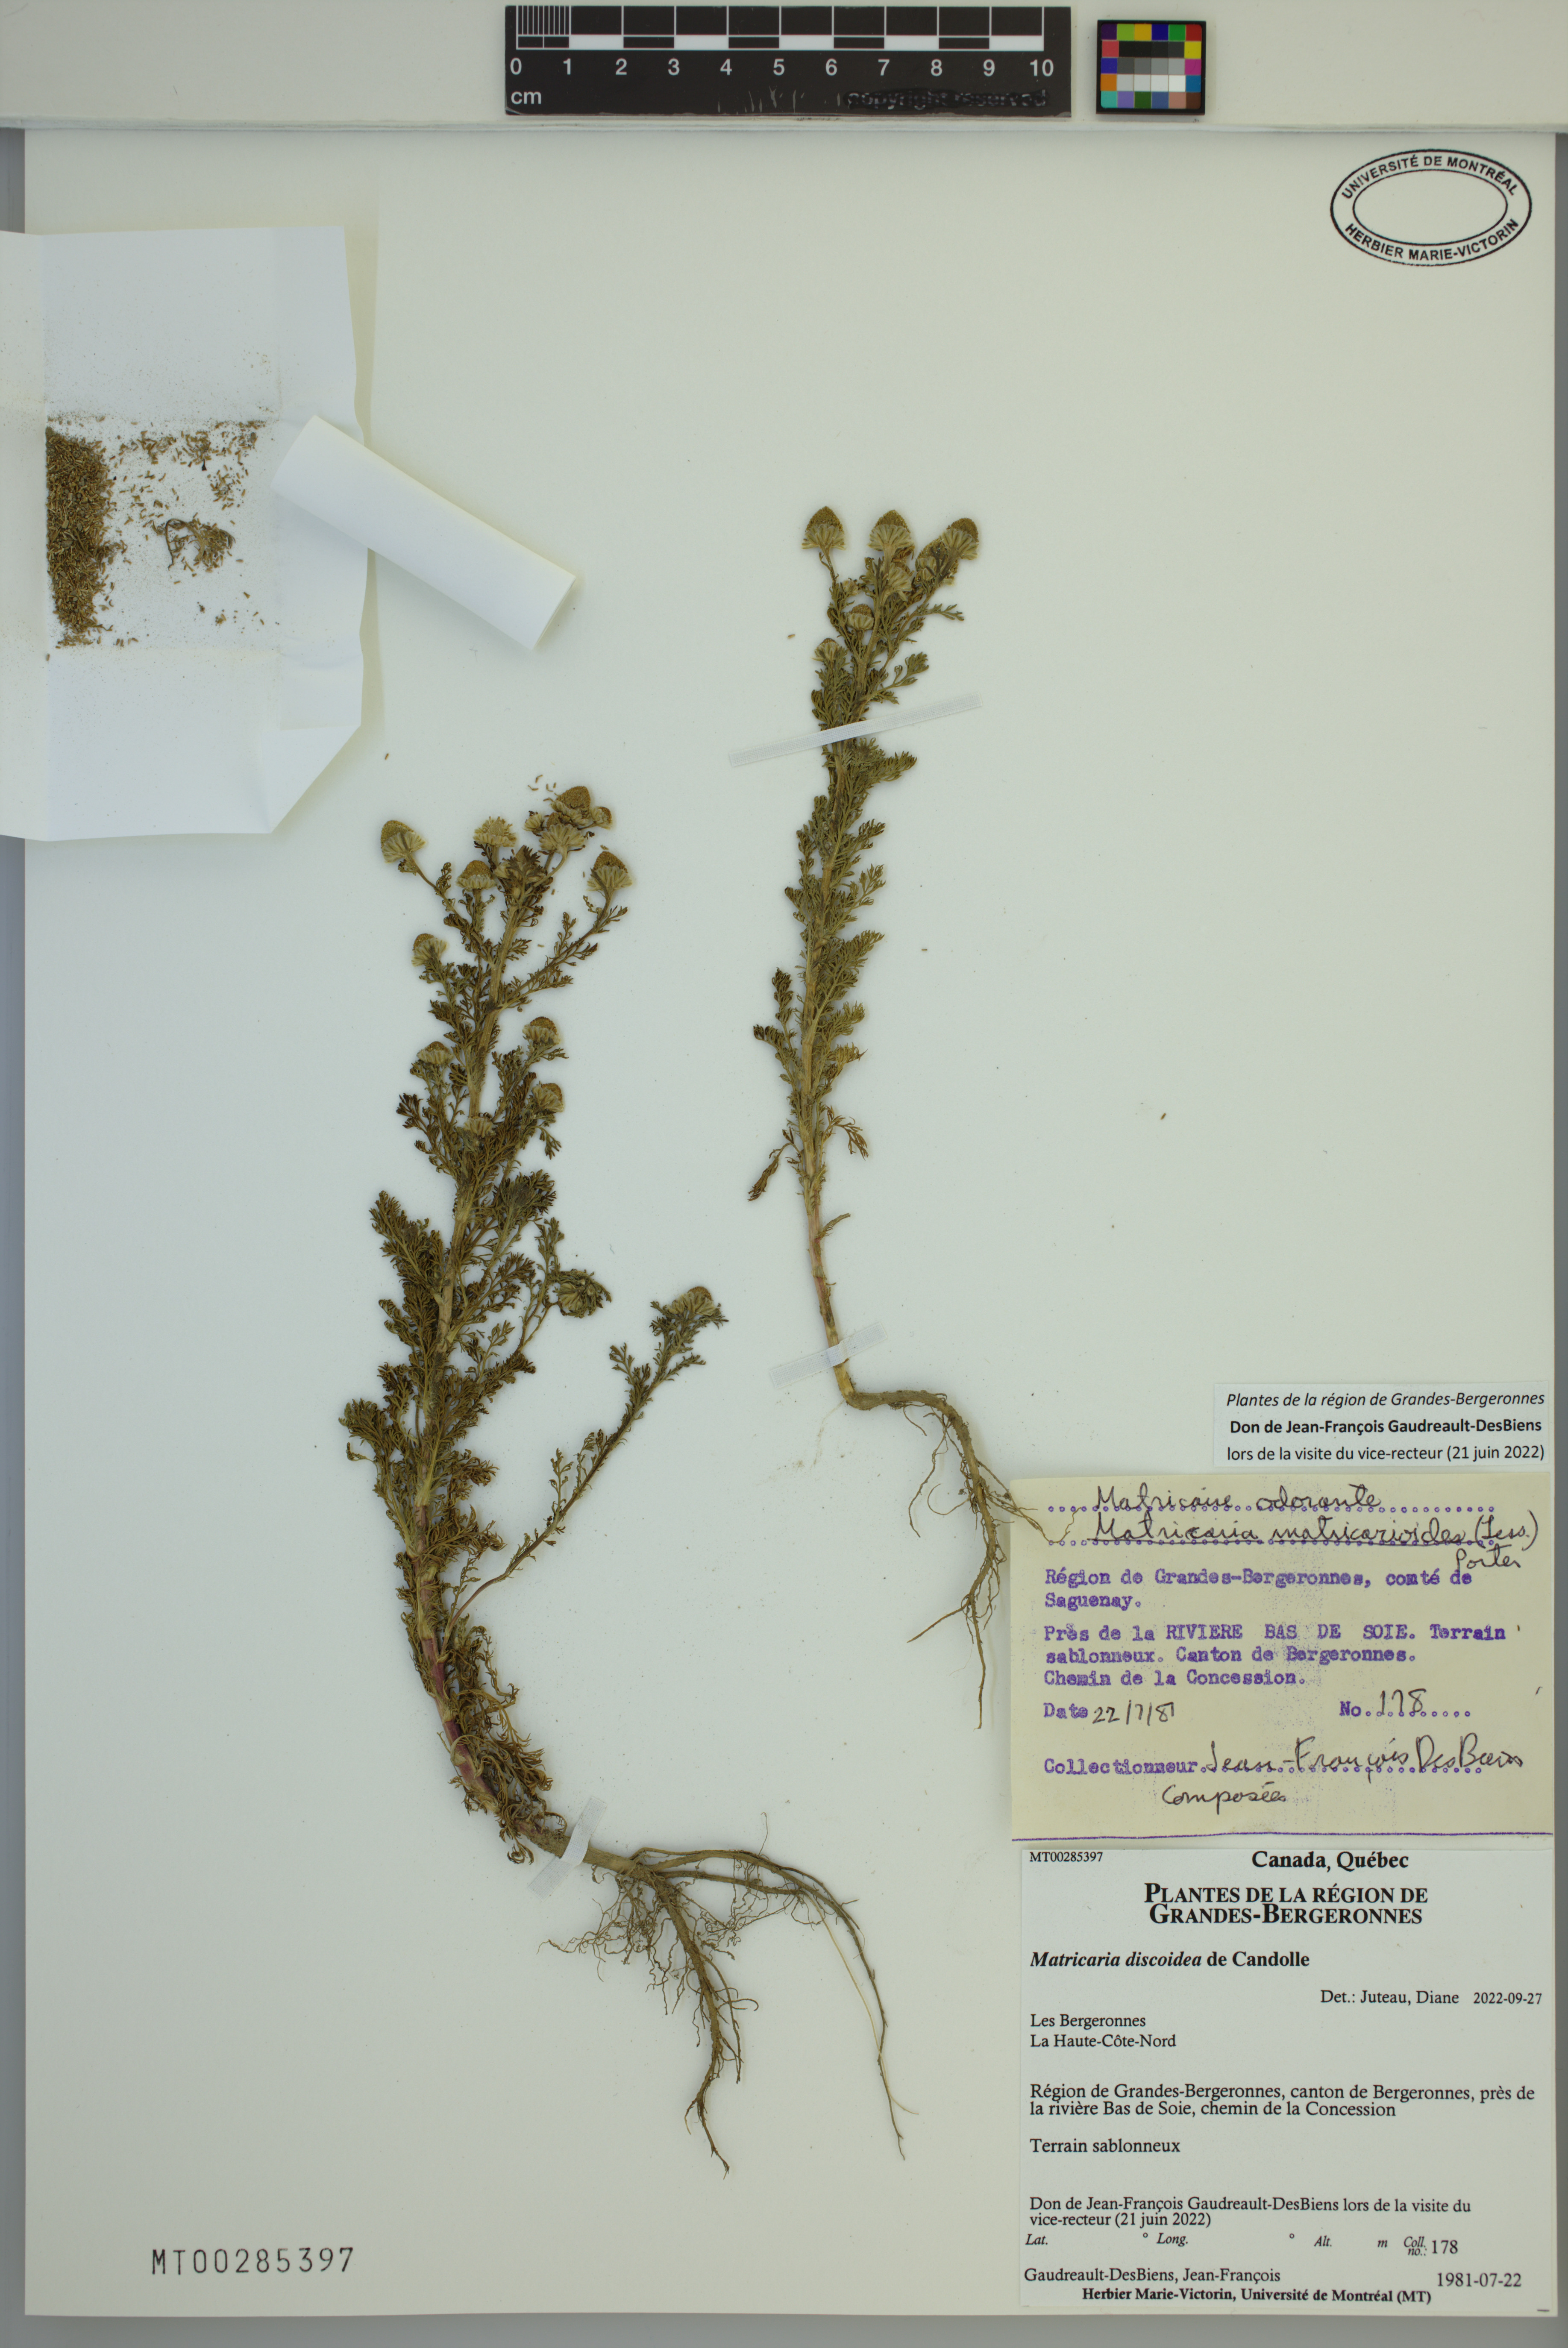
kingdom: Plantae
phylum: Tracheophyta
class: Magnoliopsida
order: Asterales
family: Asteraceae
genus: Matricaria
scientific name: Matricaria discoidea
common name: Disc mayweed
